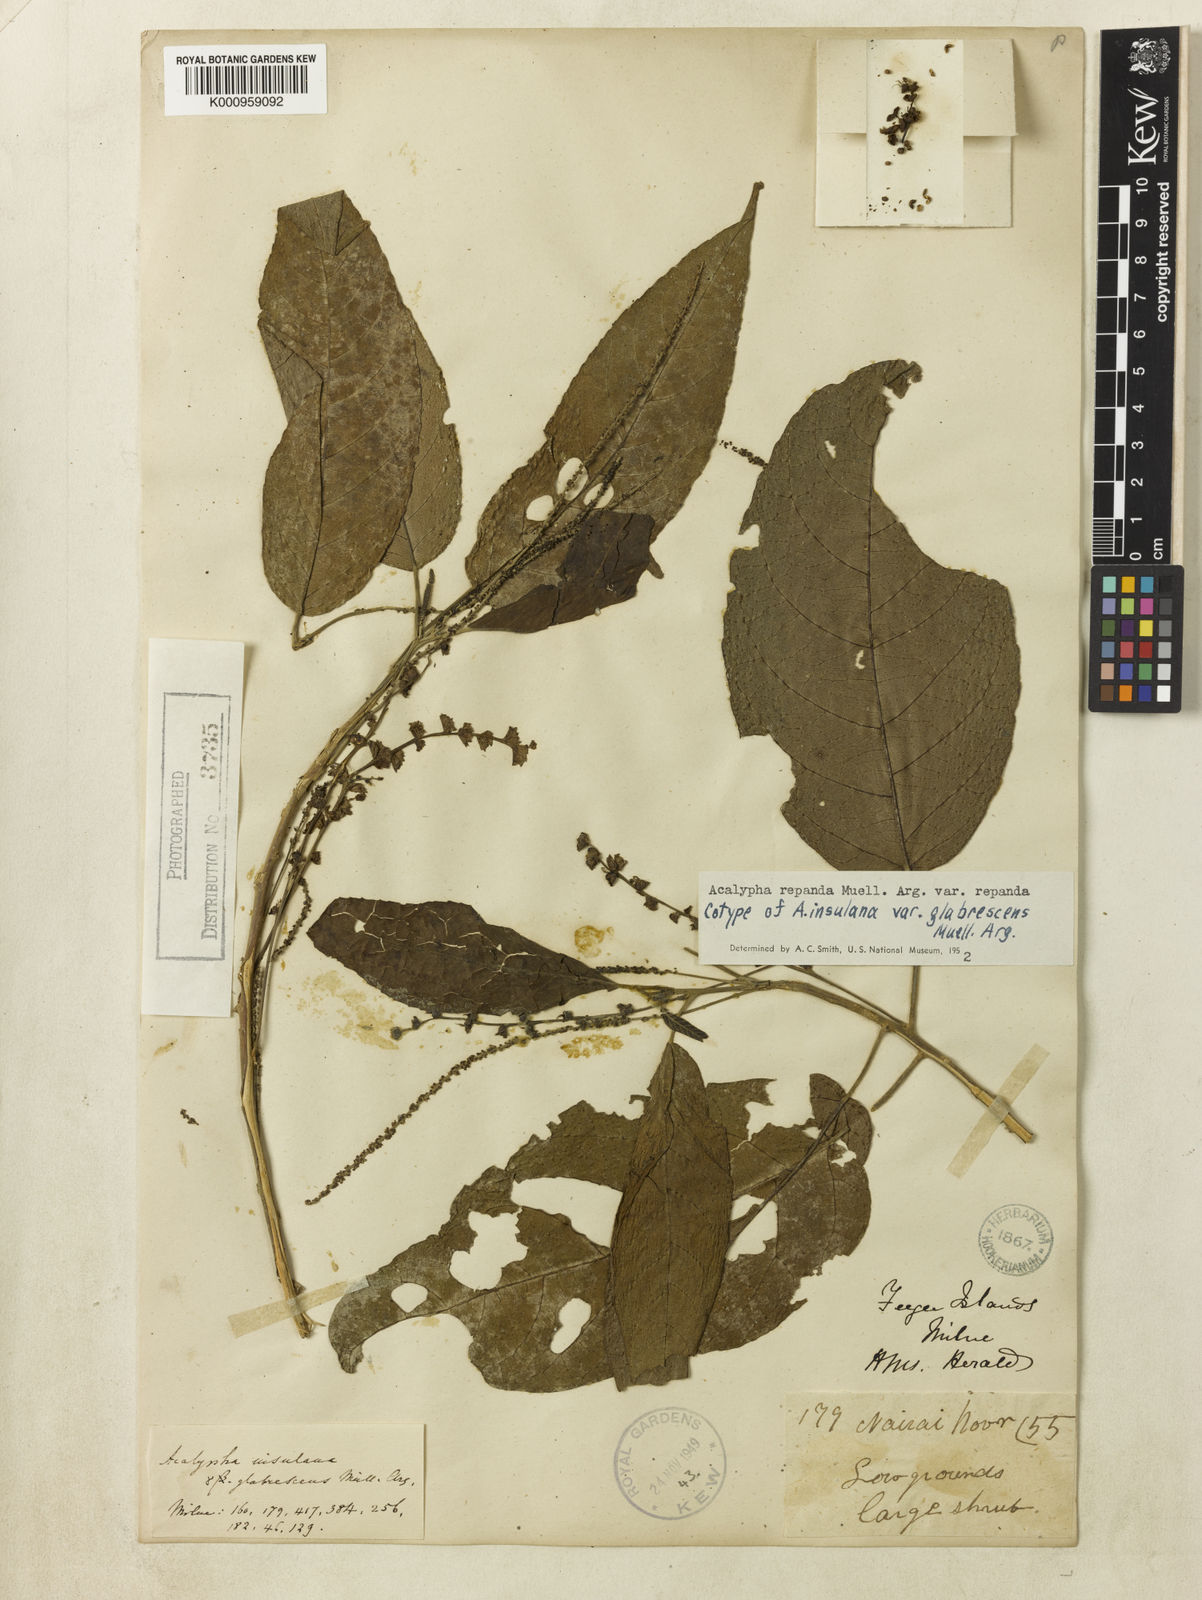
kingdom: Plantae
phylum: Tracheophyta
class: Magnoliopsida
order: Malpighiales
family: Euphorbiaceae
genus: Acalypha
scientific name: Acalypha repanda
